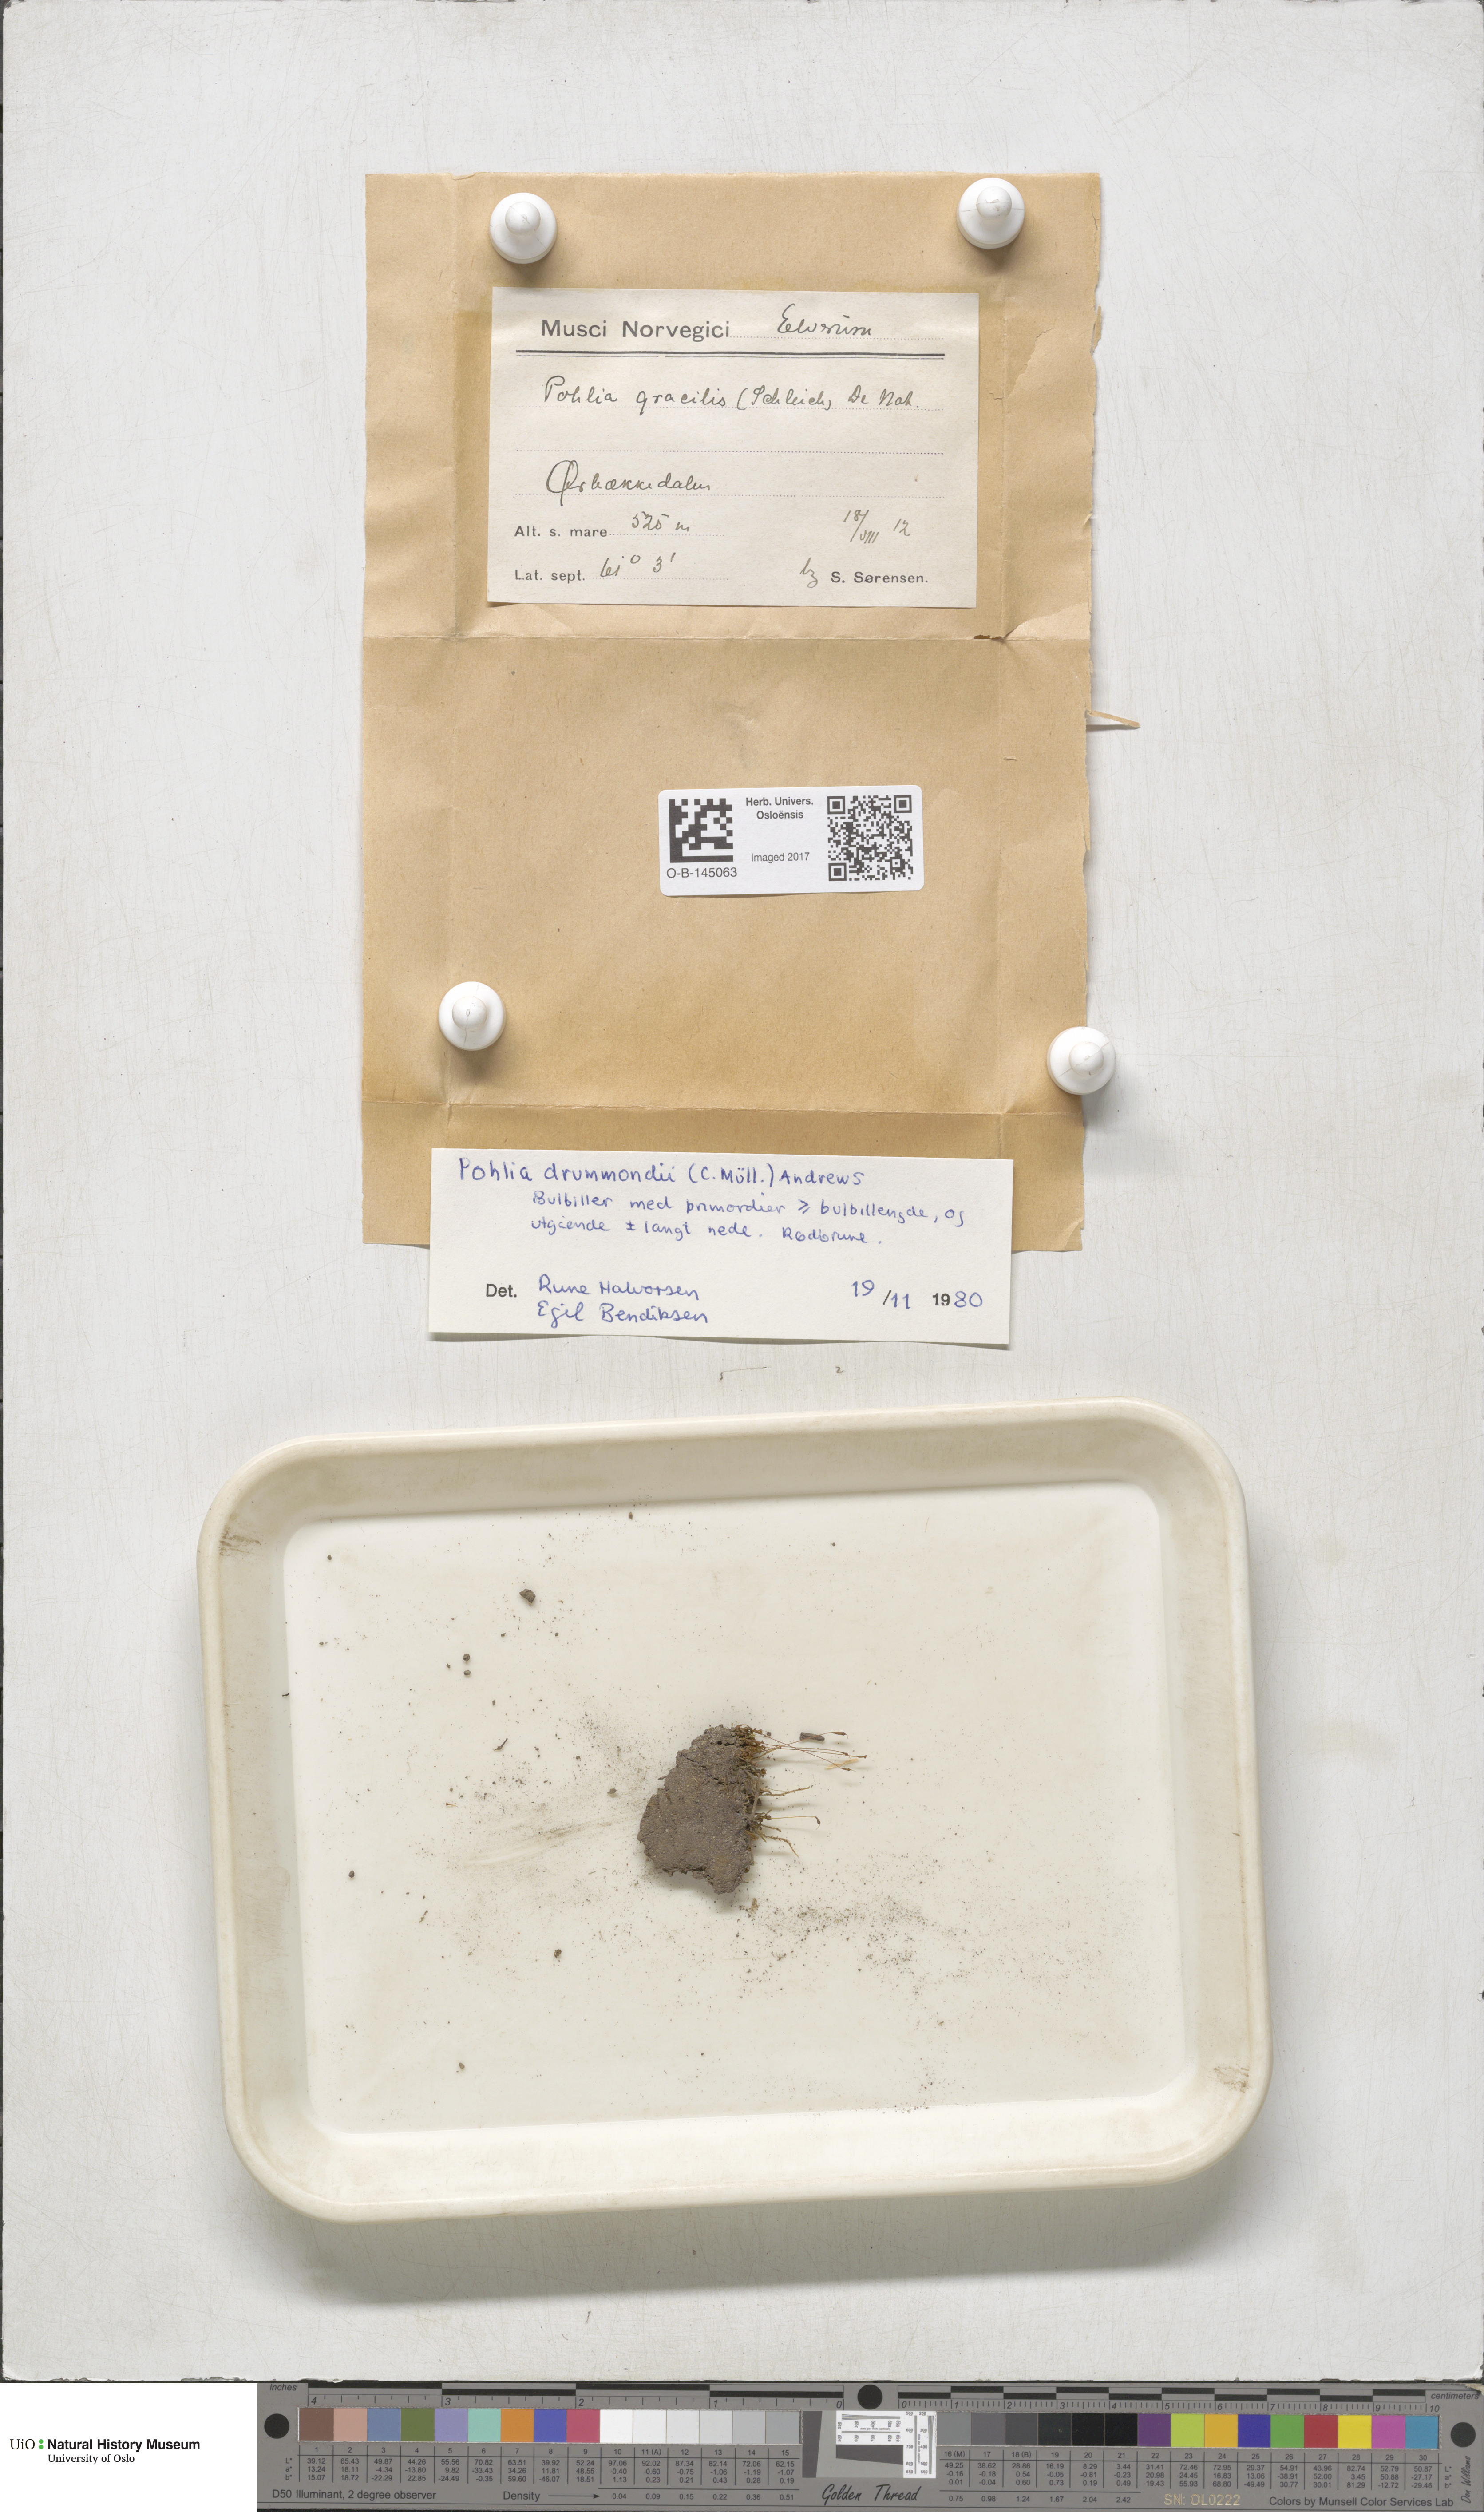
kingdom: Plantae
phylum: Bryophyta
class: Bryopsida
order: Bryales
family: Mniaceae
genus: Pohlia
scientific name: Pohlia filum
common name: Slender nodding moss
